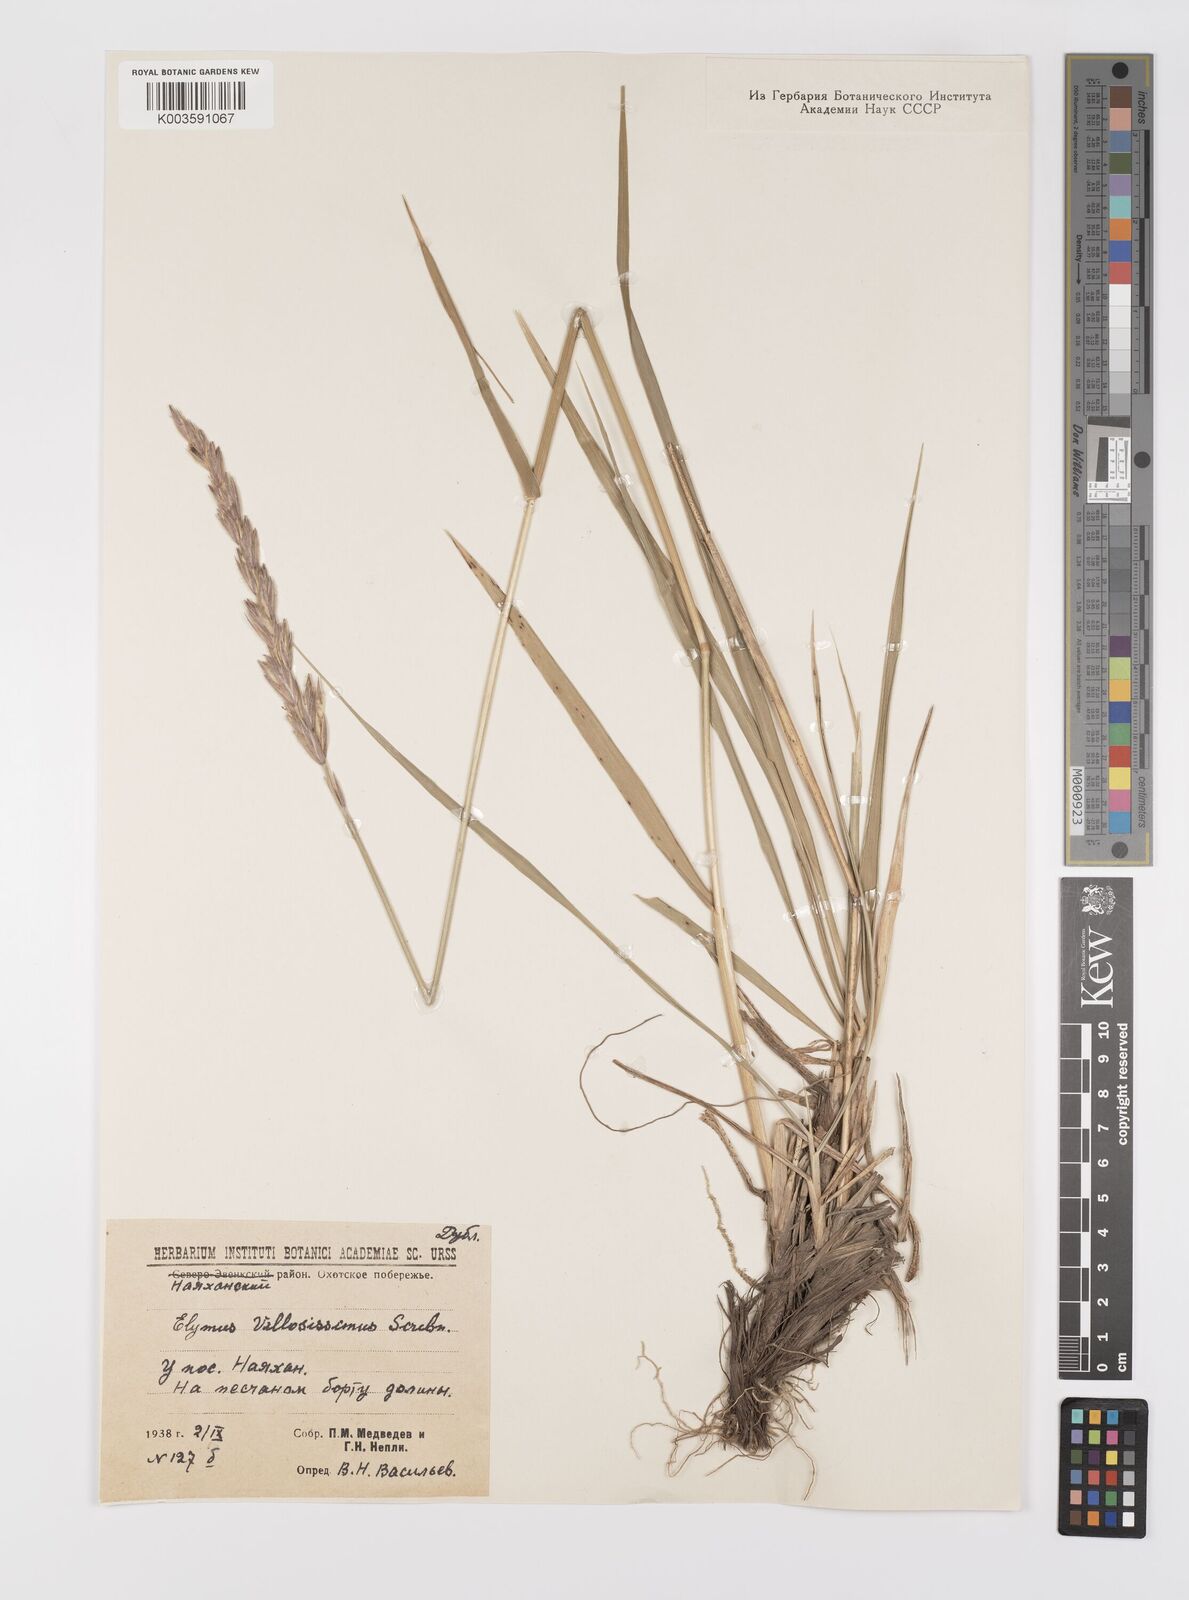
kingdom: Plantae
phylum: Tracheophyta
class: Liliopsida
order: Poales
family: Poaceae
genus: Leymus
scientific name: Leymus villosissimus
